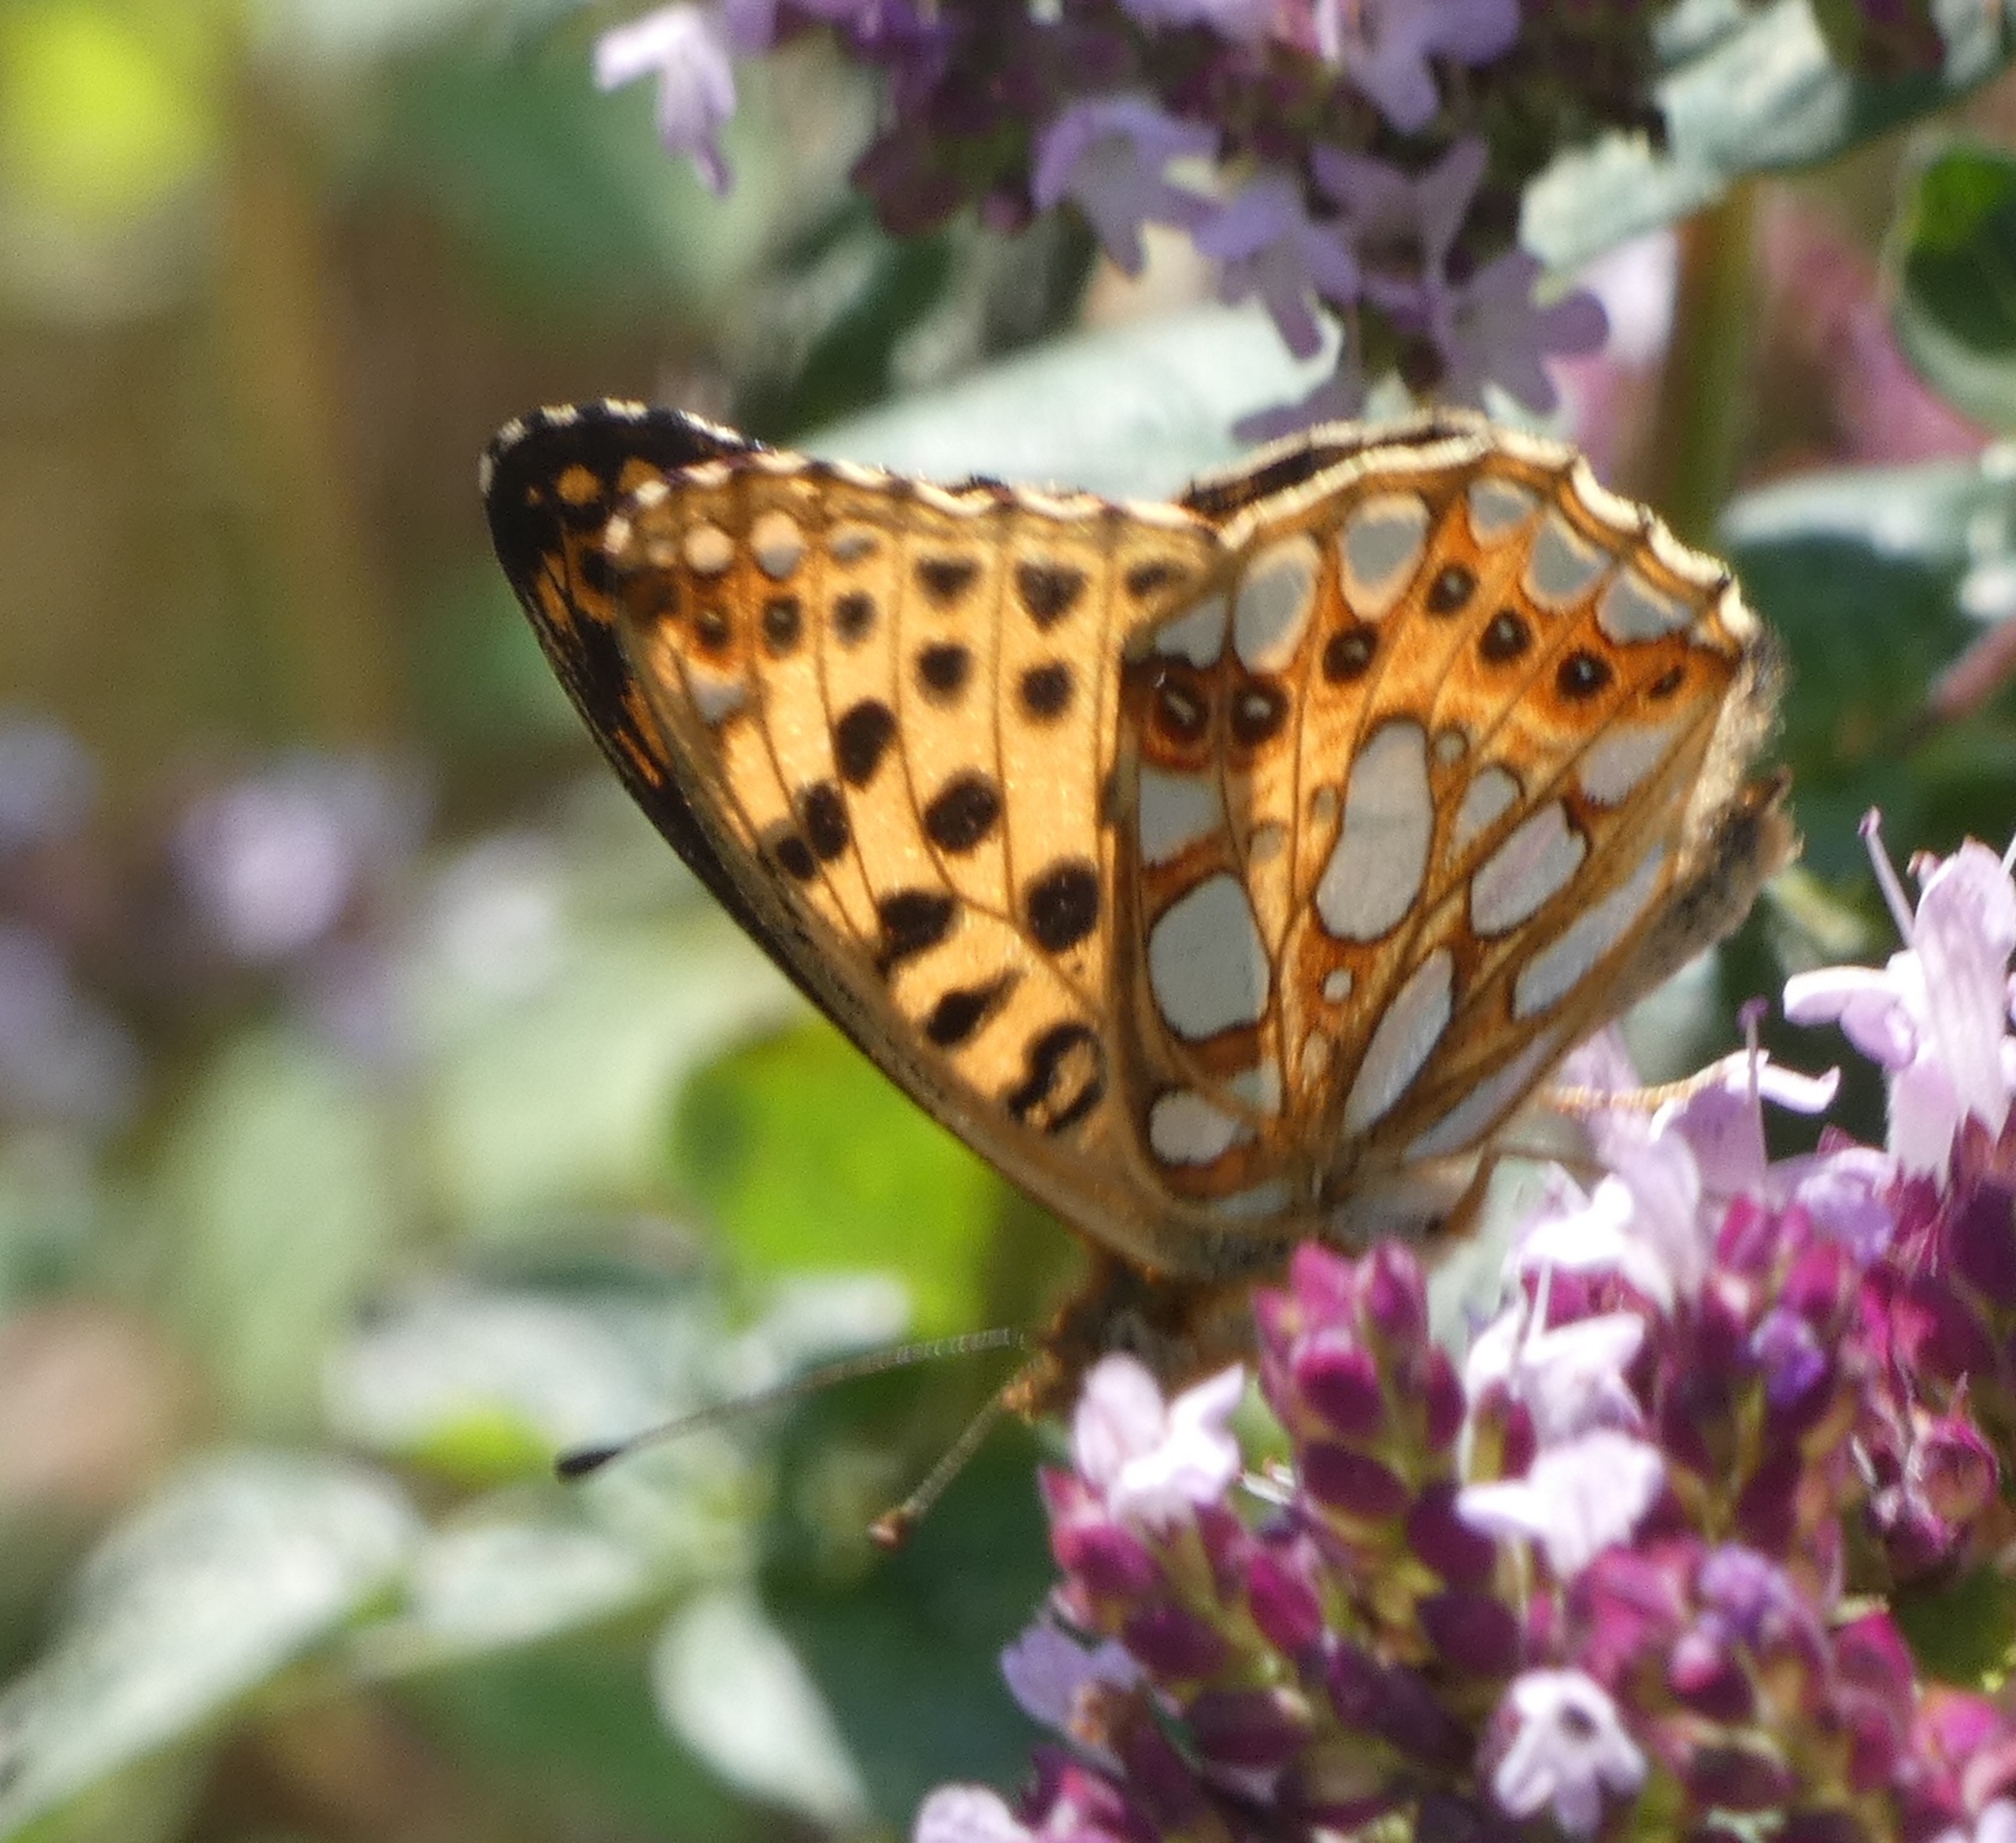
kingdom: Animalia
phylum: Arthropoda
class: Insecta
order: Lepidoptera
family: Nymphalidae
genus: Issoria
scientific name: Issoria lathonia
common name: Storplettet perlemorsommerfugl
